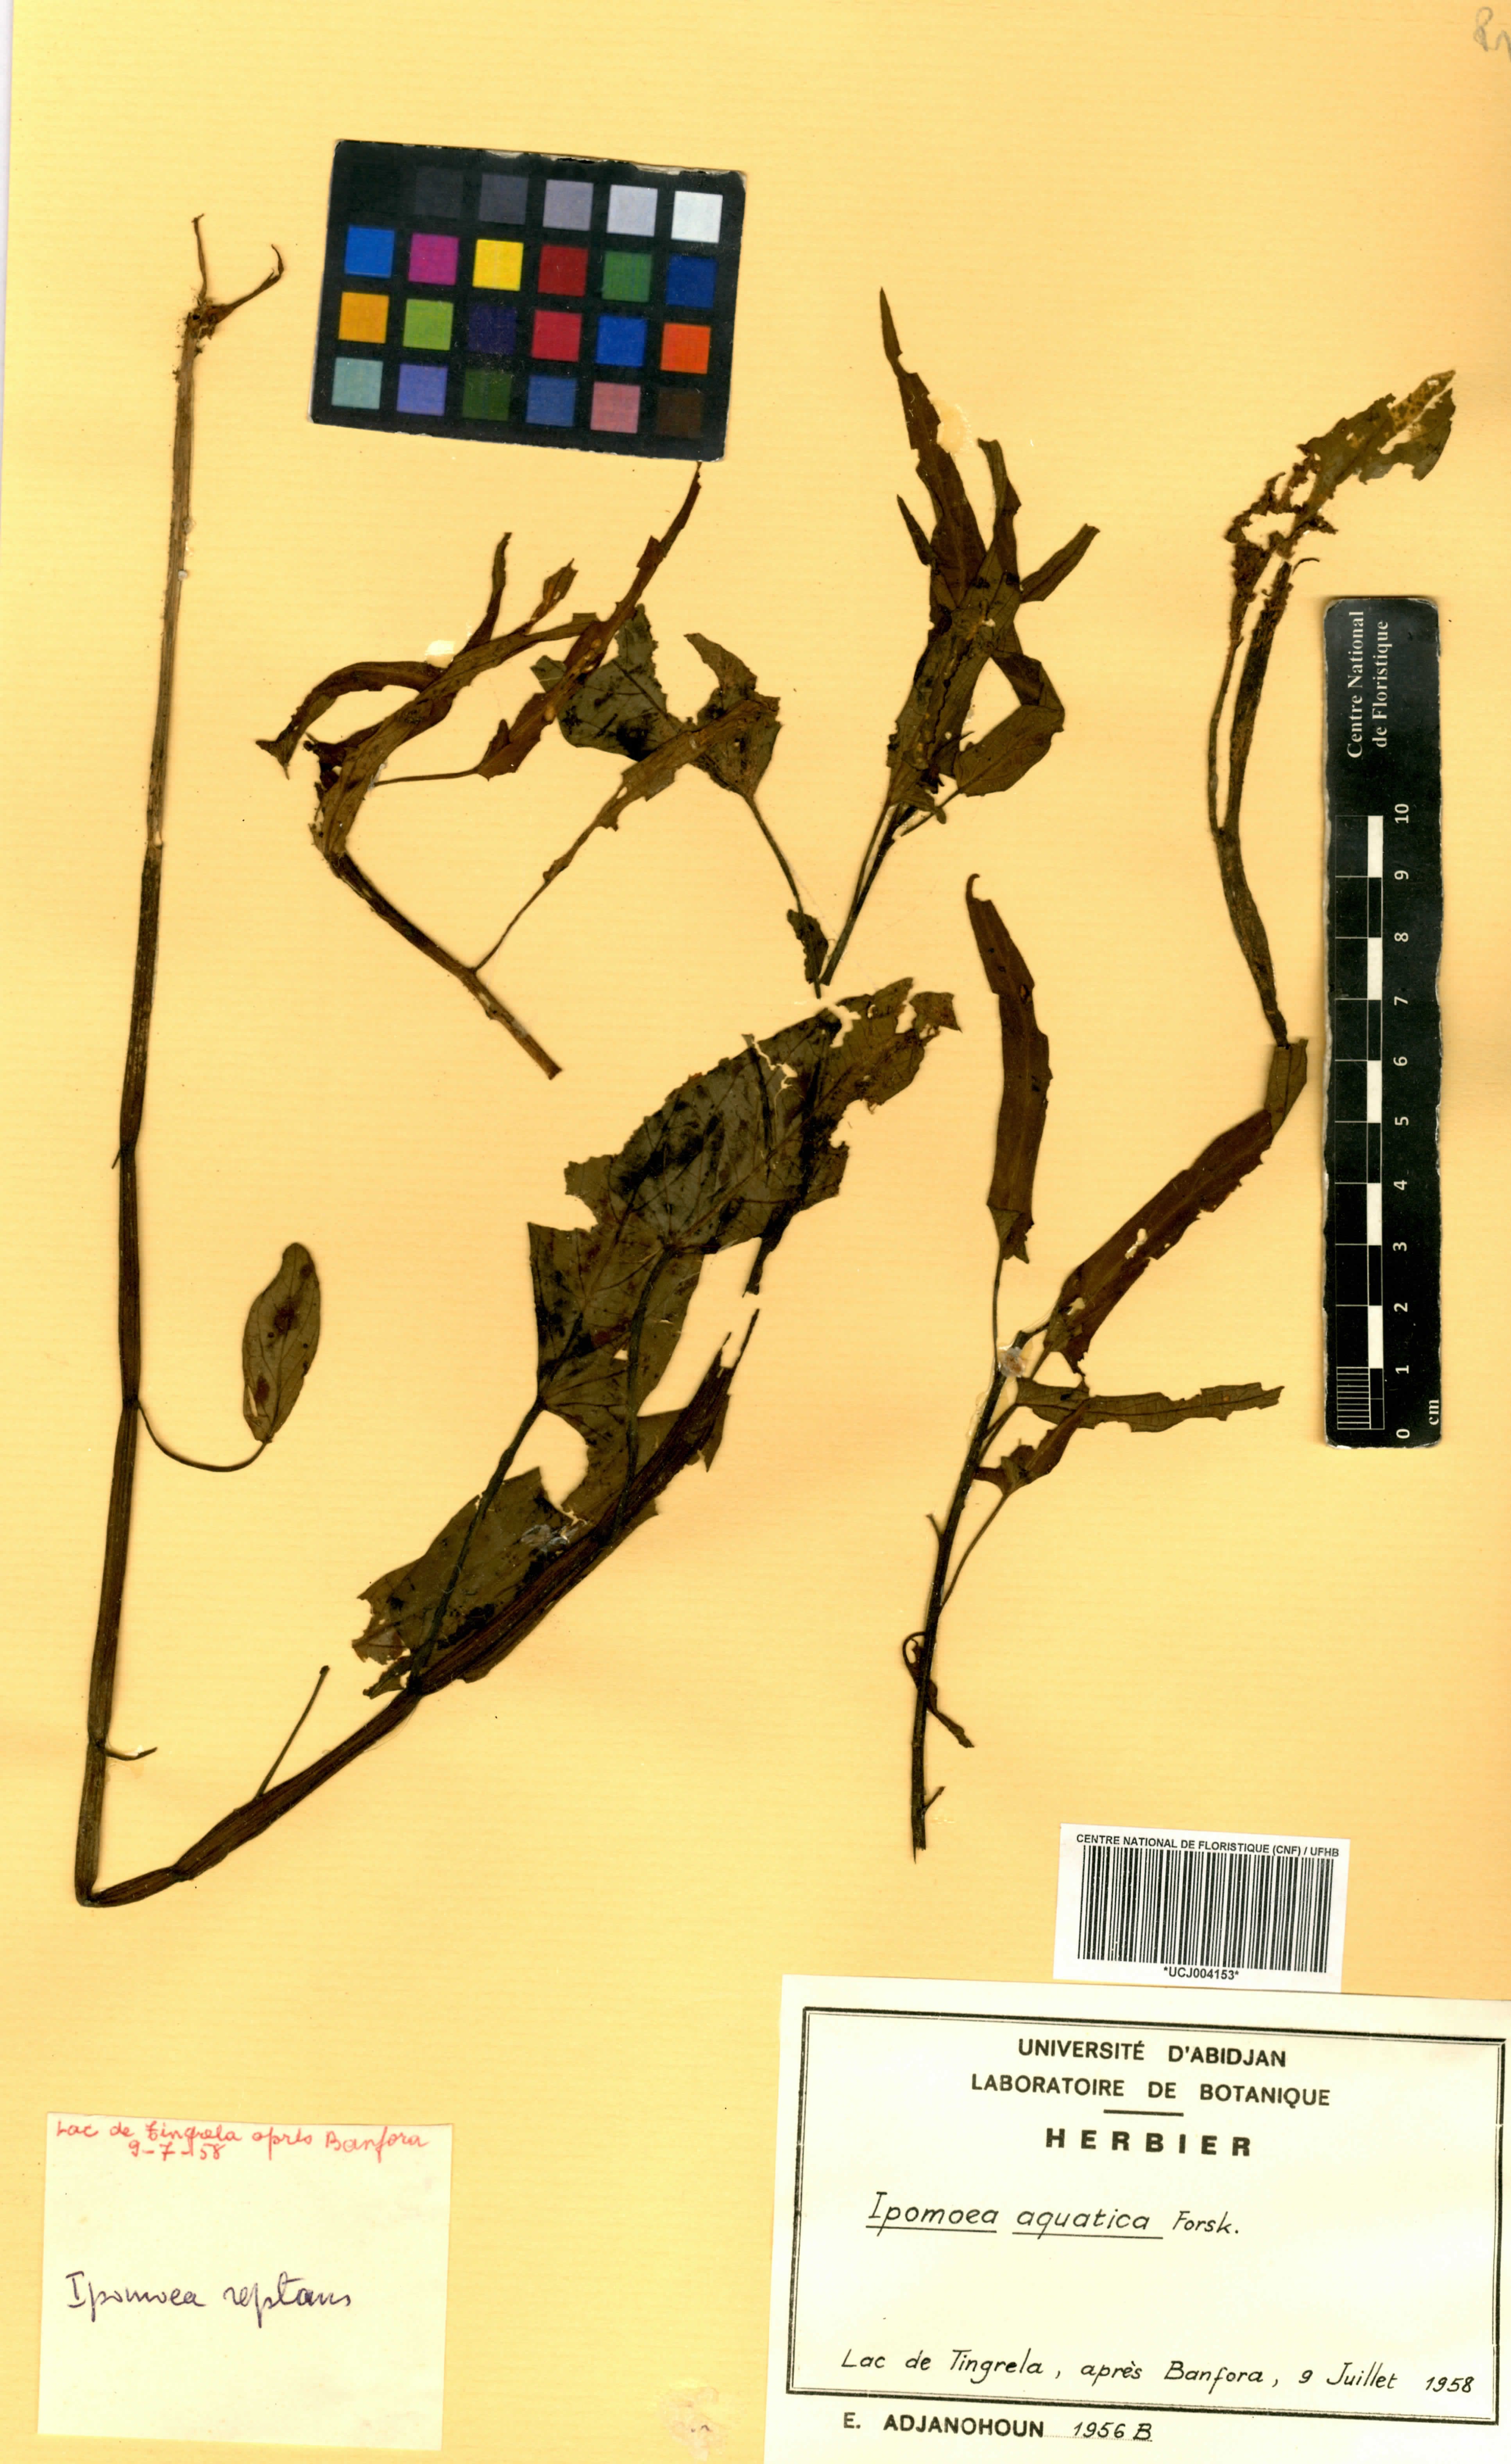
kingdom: Plantae
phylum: Tracheophyta
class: Magnoliopsida
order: Solanales
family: Convolvulaceae
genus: Ipomoea
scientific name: Ipomoea aquatica
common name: Swamp morning-glory
